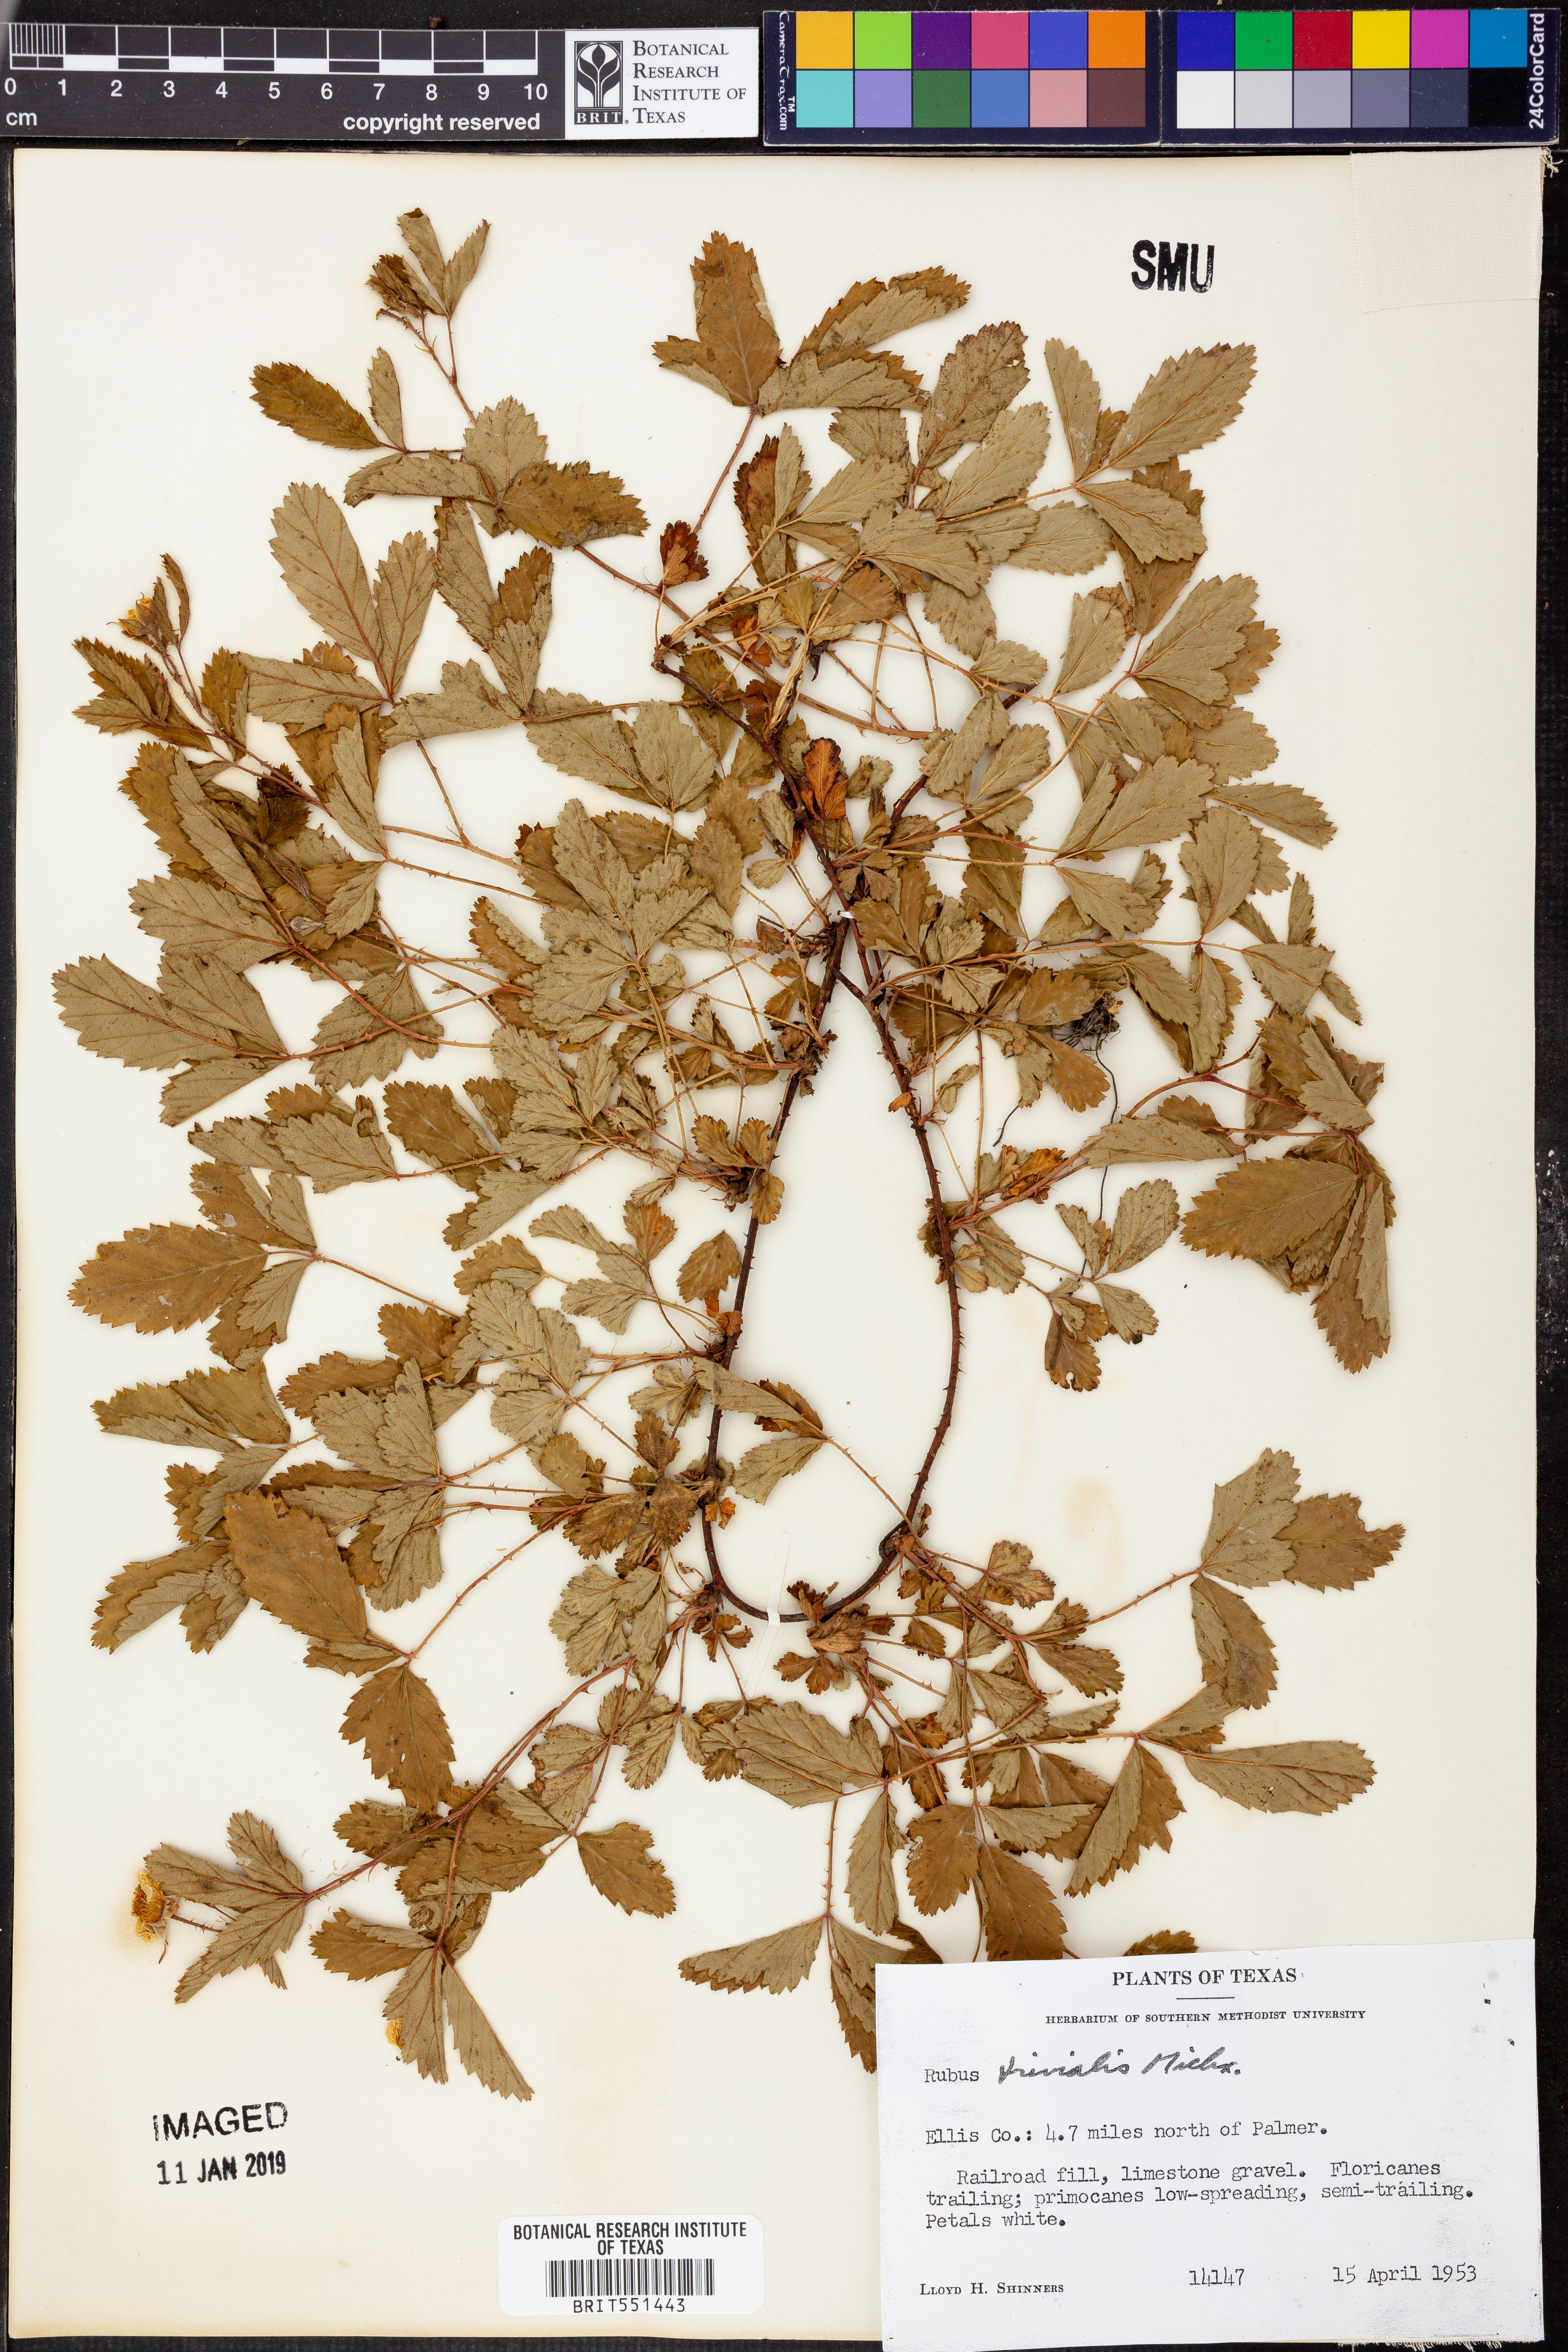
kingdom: Plantae
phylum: Tracheophyta
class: Magnoliopsida
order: Rosales
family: Rosaceae
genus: Rubus
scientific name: Rubus trivialis
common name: Southern dewberry
